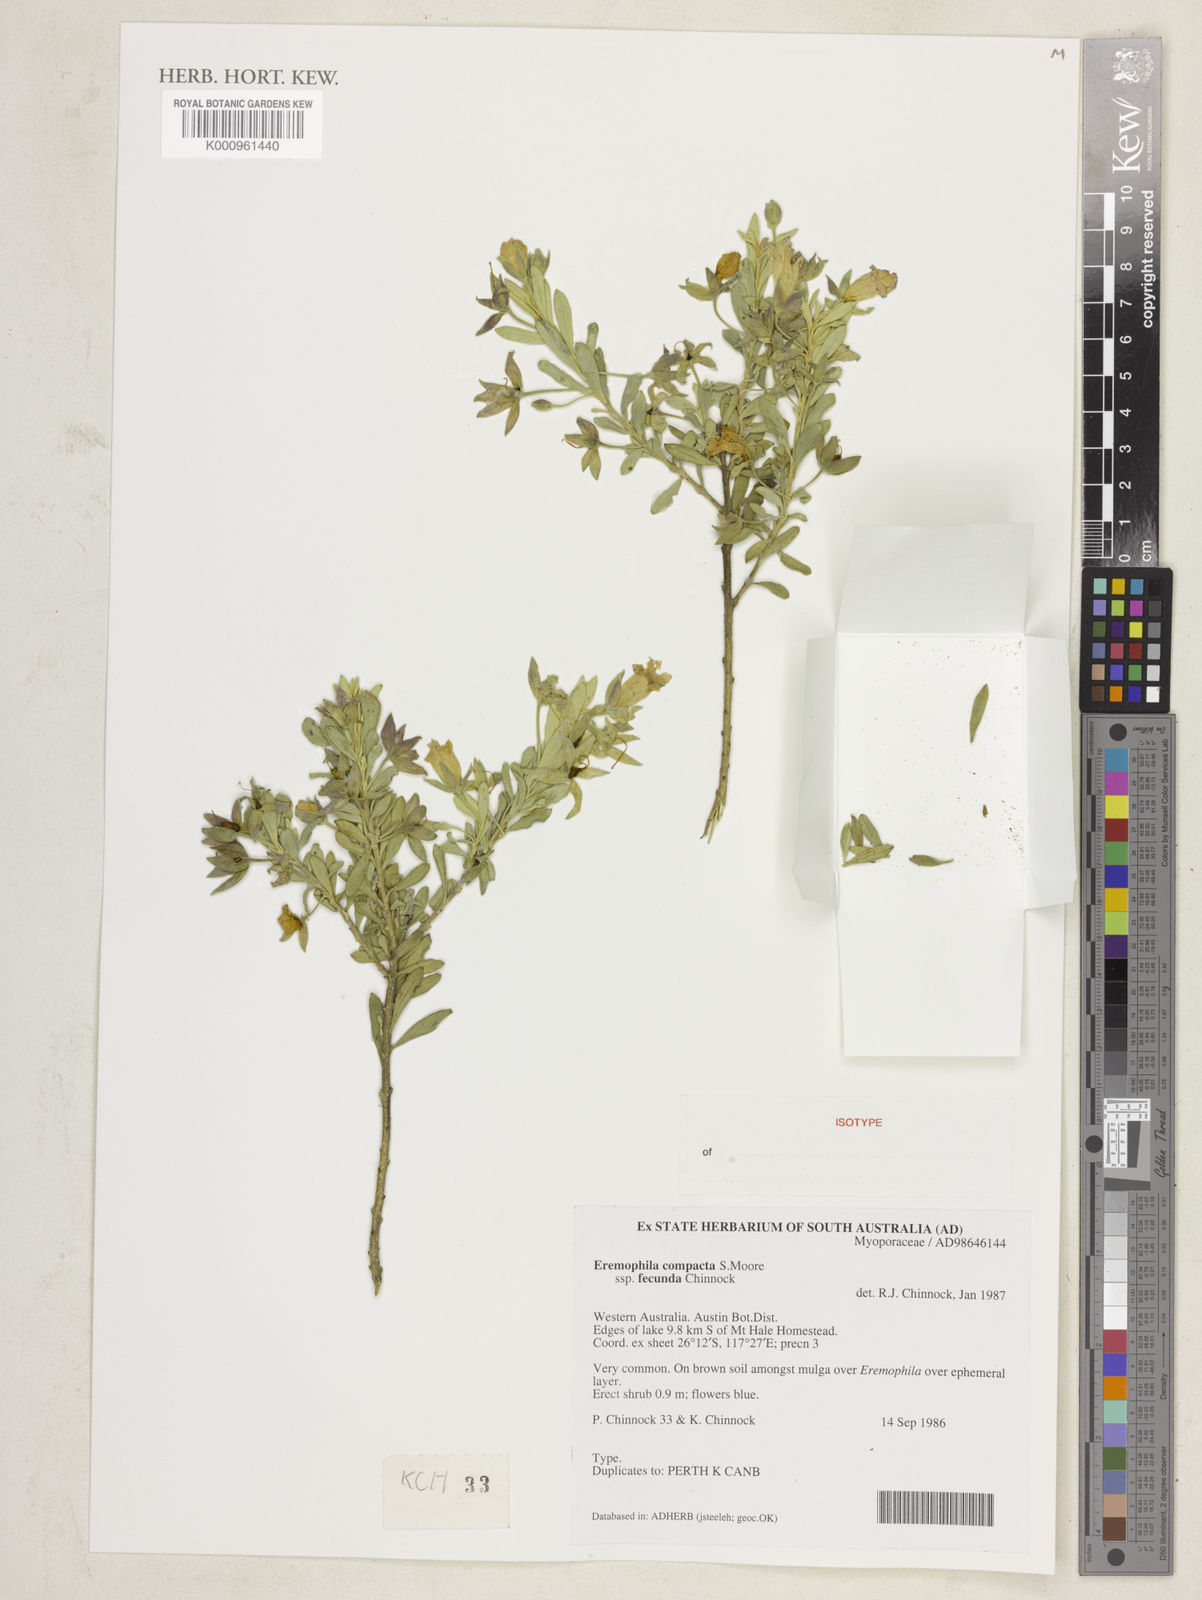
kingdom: Plantae
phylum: Tracheophyta
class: Magnoliopsida
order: Lamiales
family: Scrophulariaceae
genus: Eremophila
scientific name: Eremophila compacta
